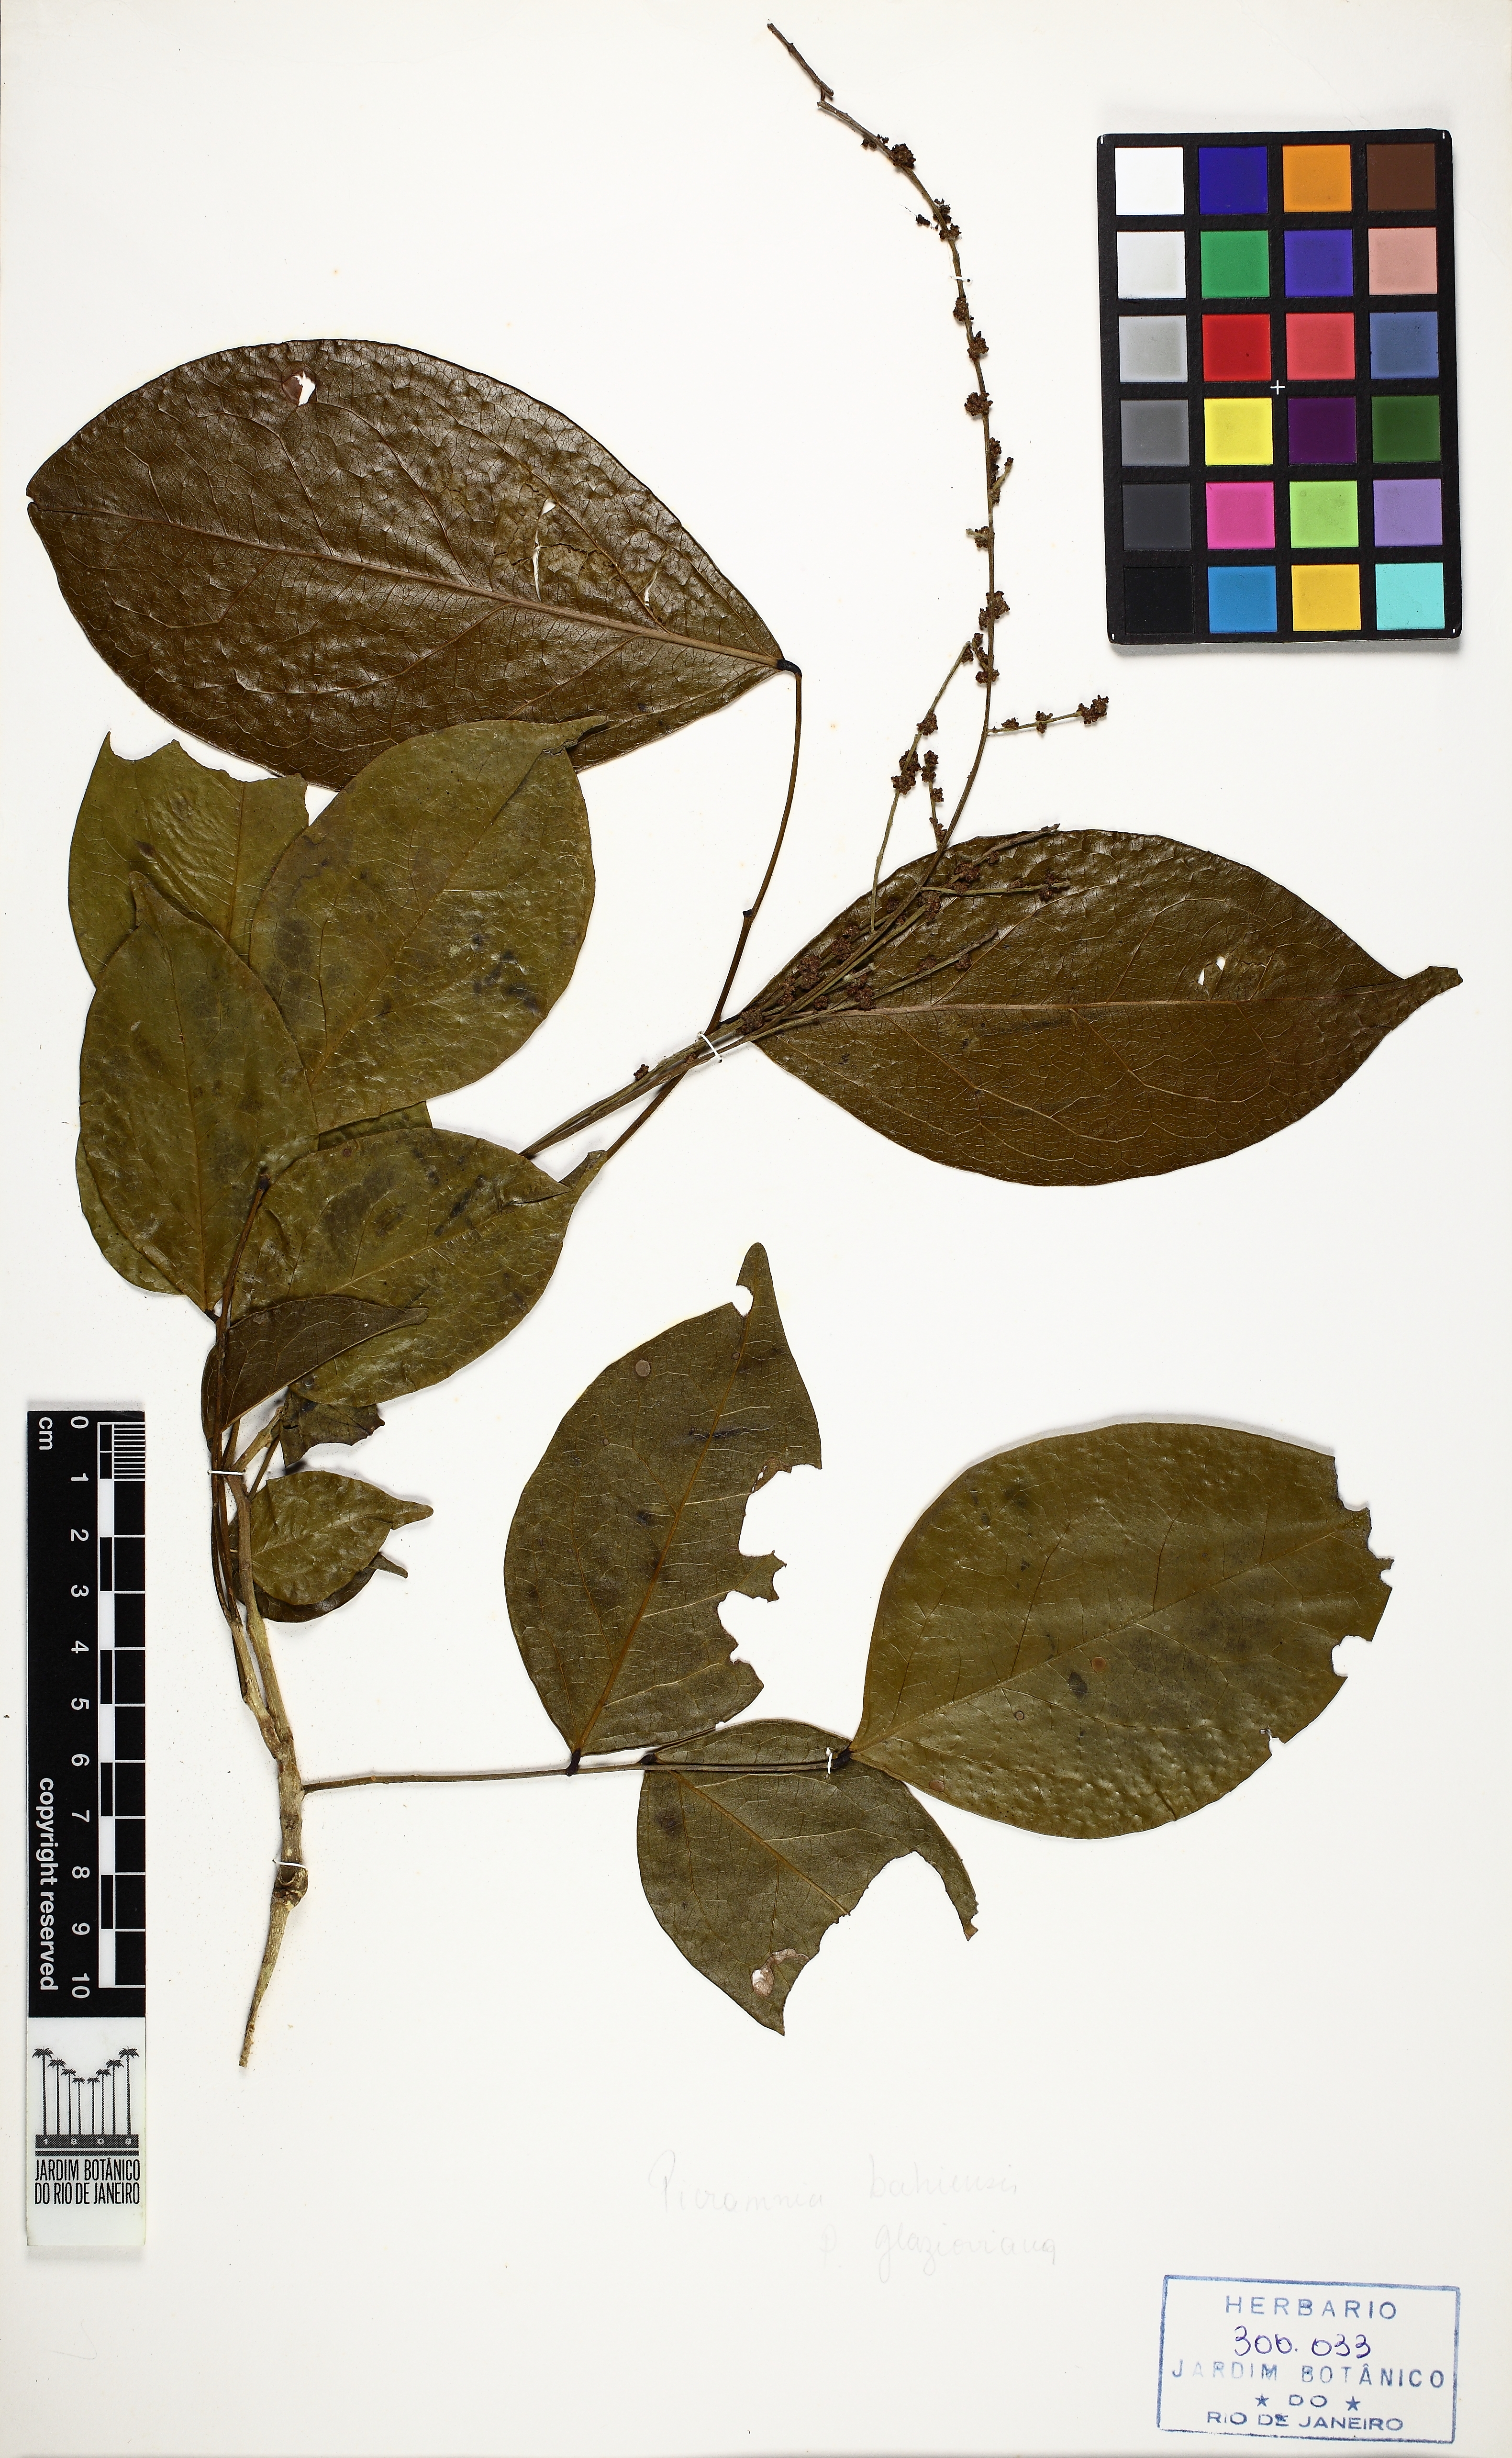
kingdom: Plantae
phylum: Tracheophyta
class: Magnoliopsida
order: Picramniales
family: Picramniaceae
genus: Picramnia
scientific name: Picramnia gardneri
